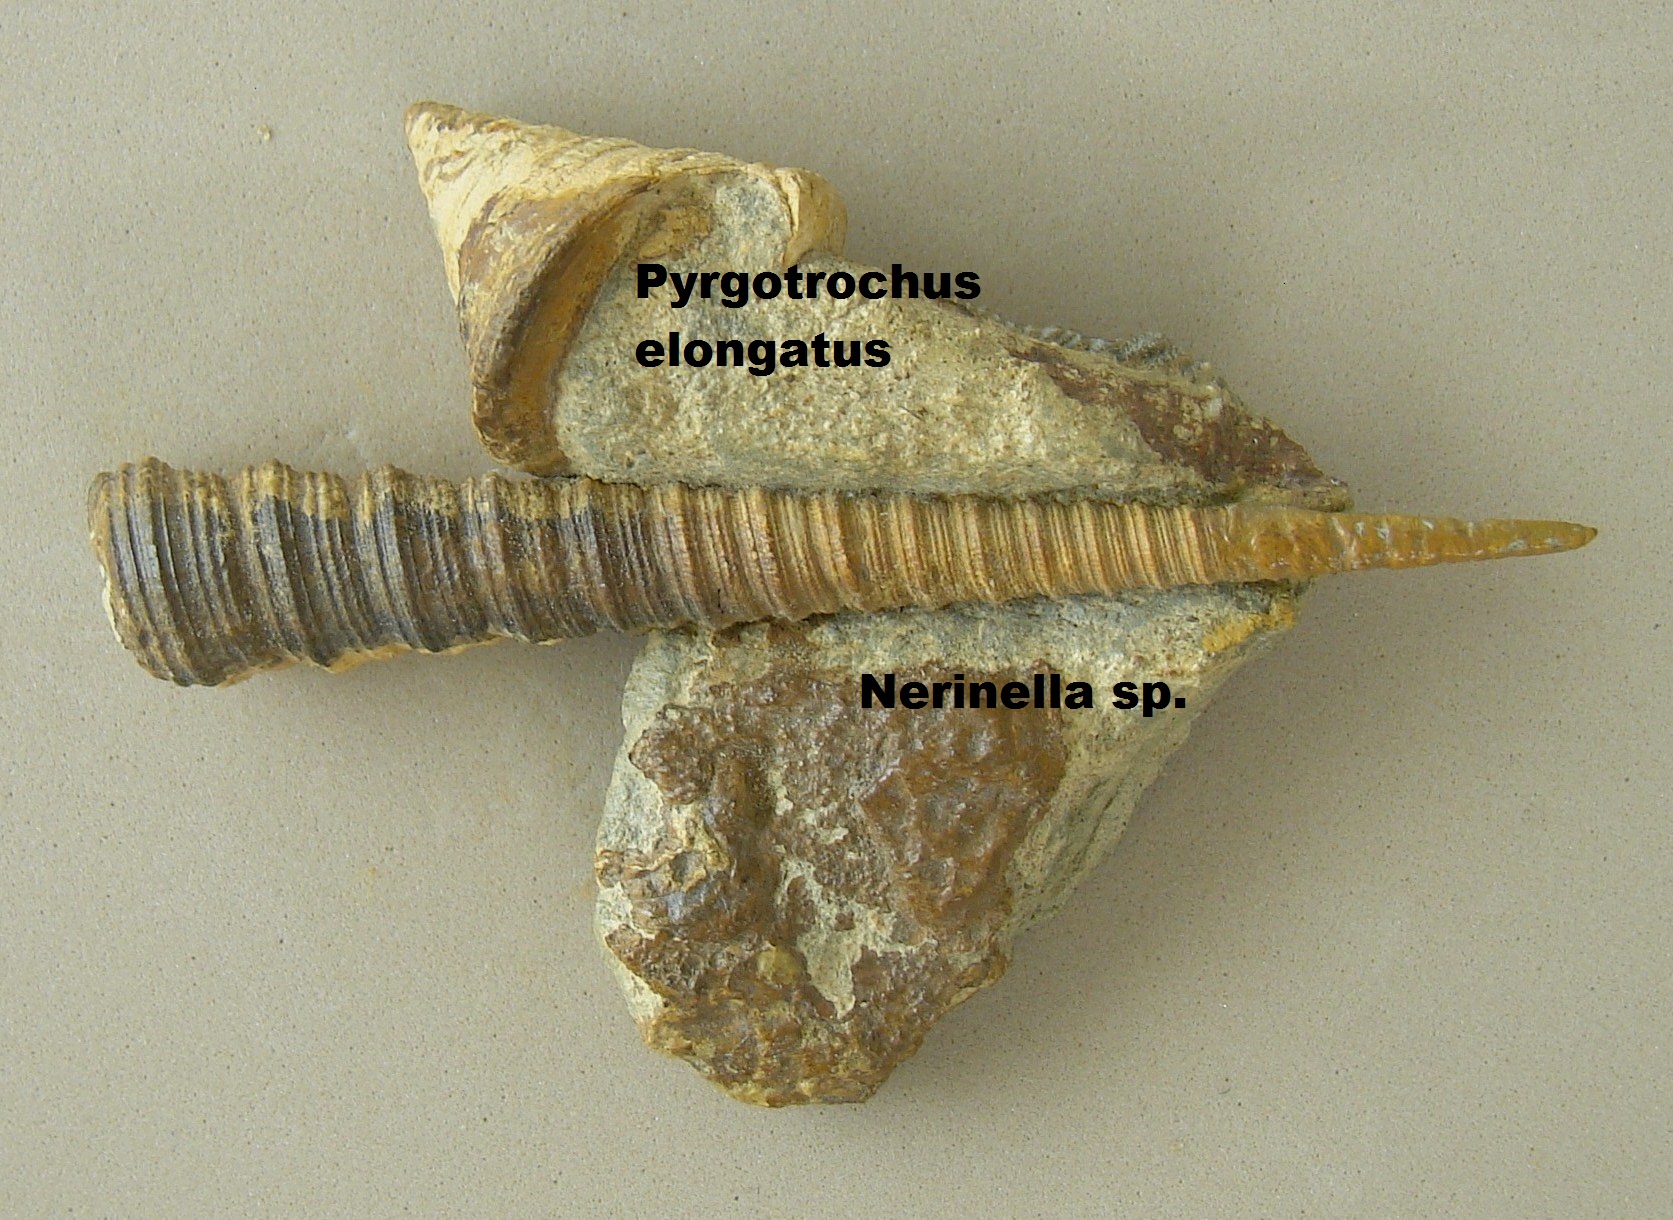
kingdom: Animalia
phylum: Mollusca
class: Gastropoda
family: Nerinellidae
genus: Nerinella
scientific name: Nerinella
